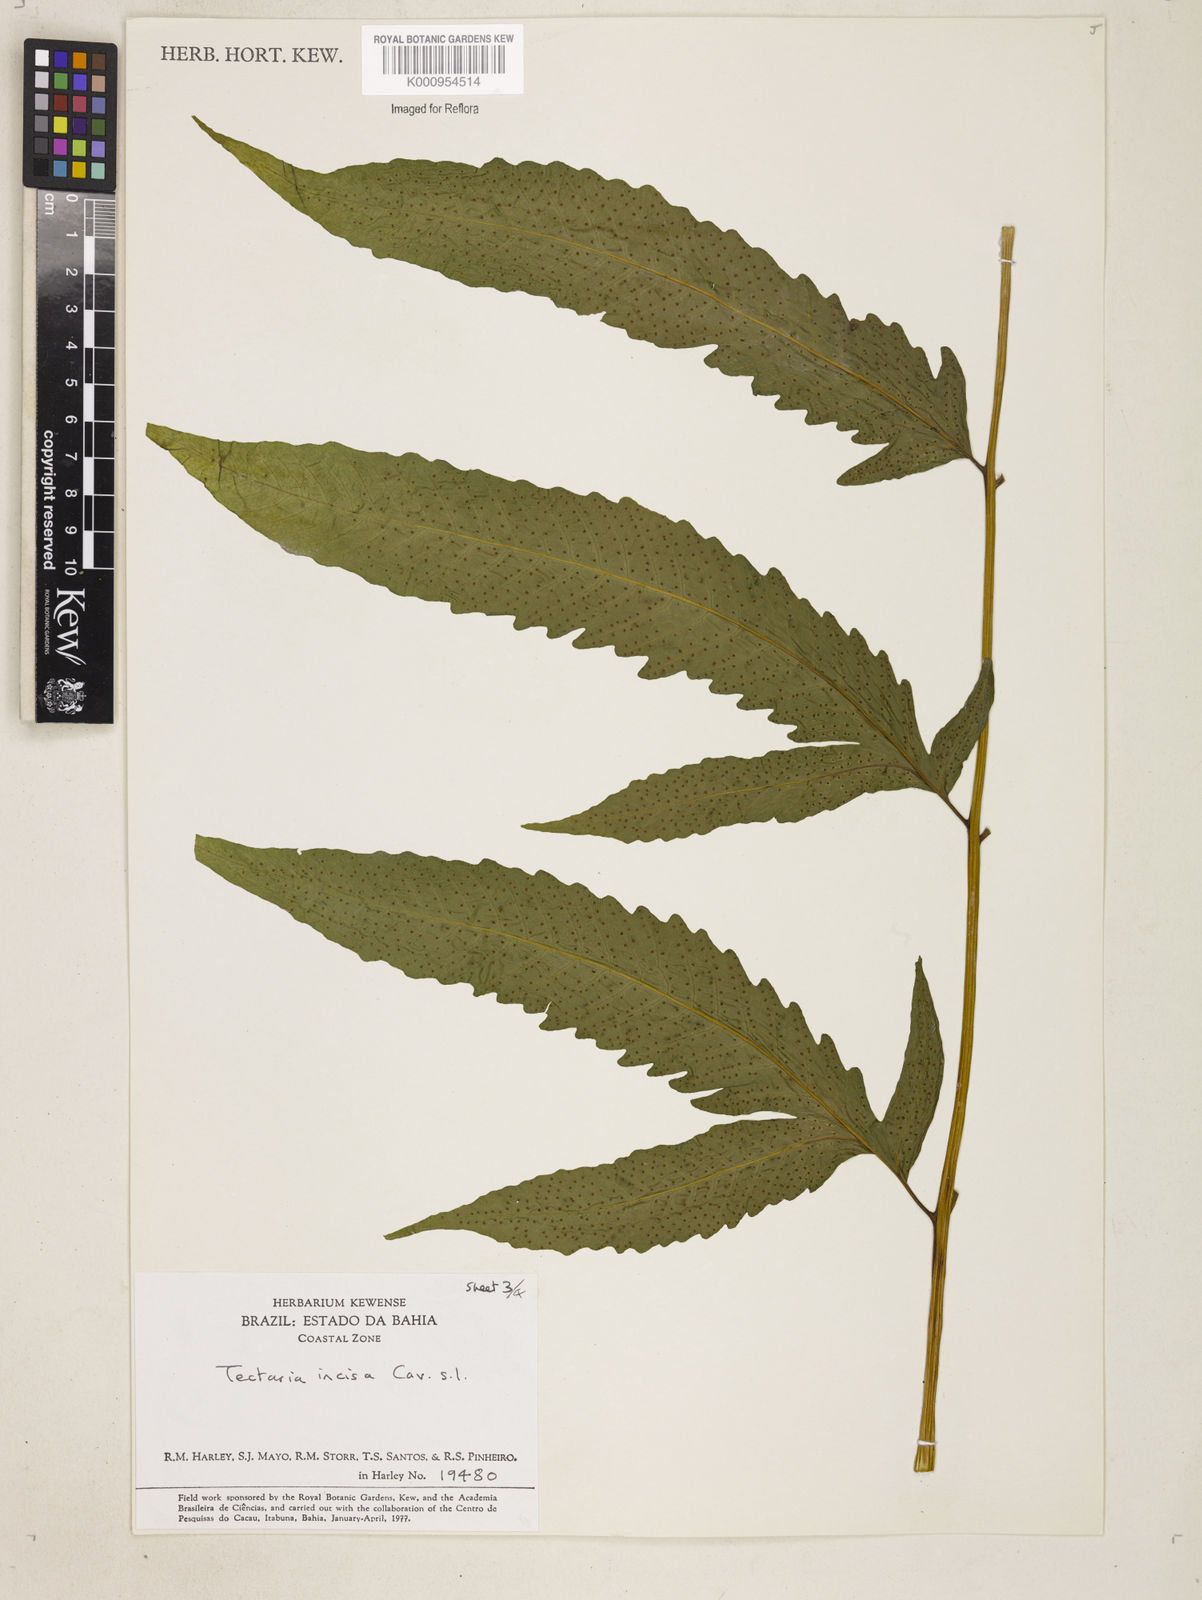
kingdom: Plantae
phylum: Tracheophyta
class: Polypodiopsida
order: Polypodiales
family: Tectariaceae
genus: Tectaria
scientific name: Tectaria incisa
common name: Incised halberd fern
